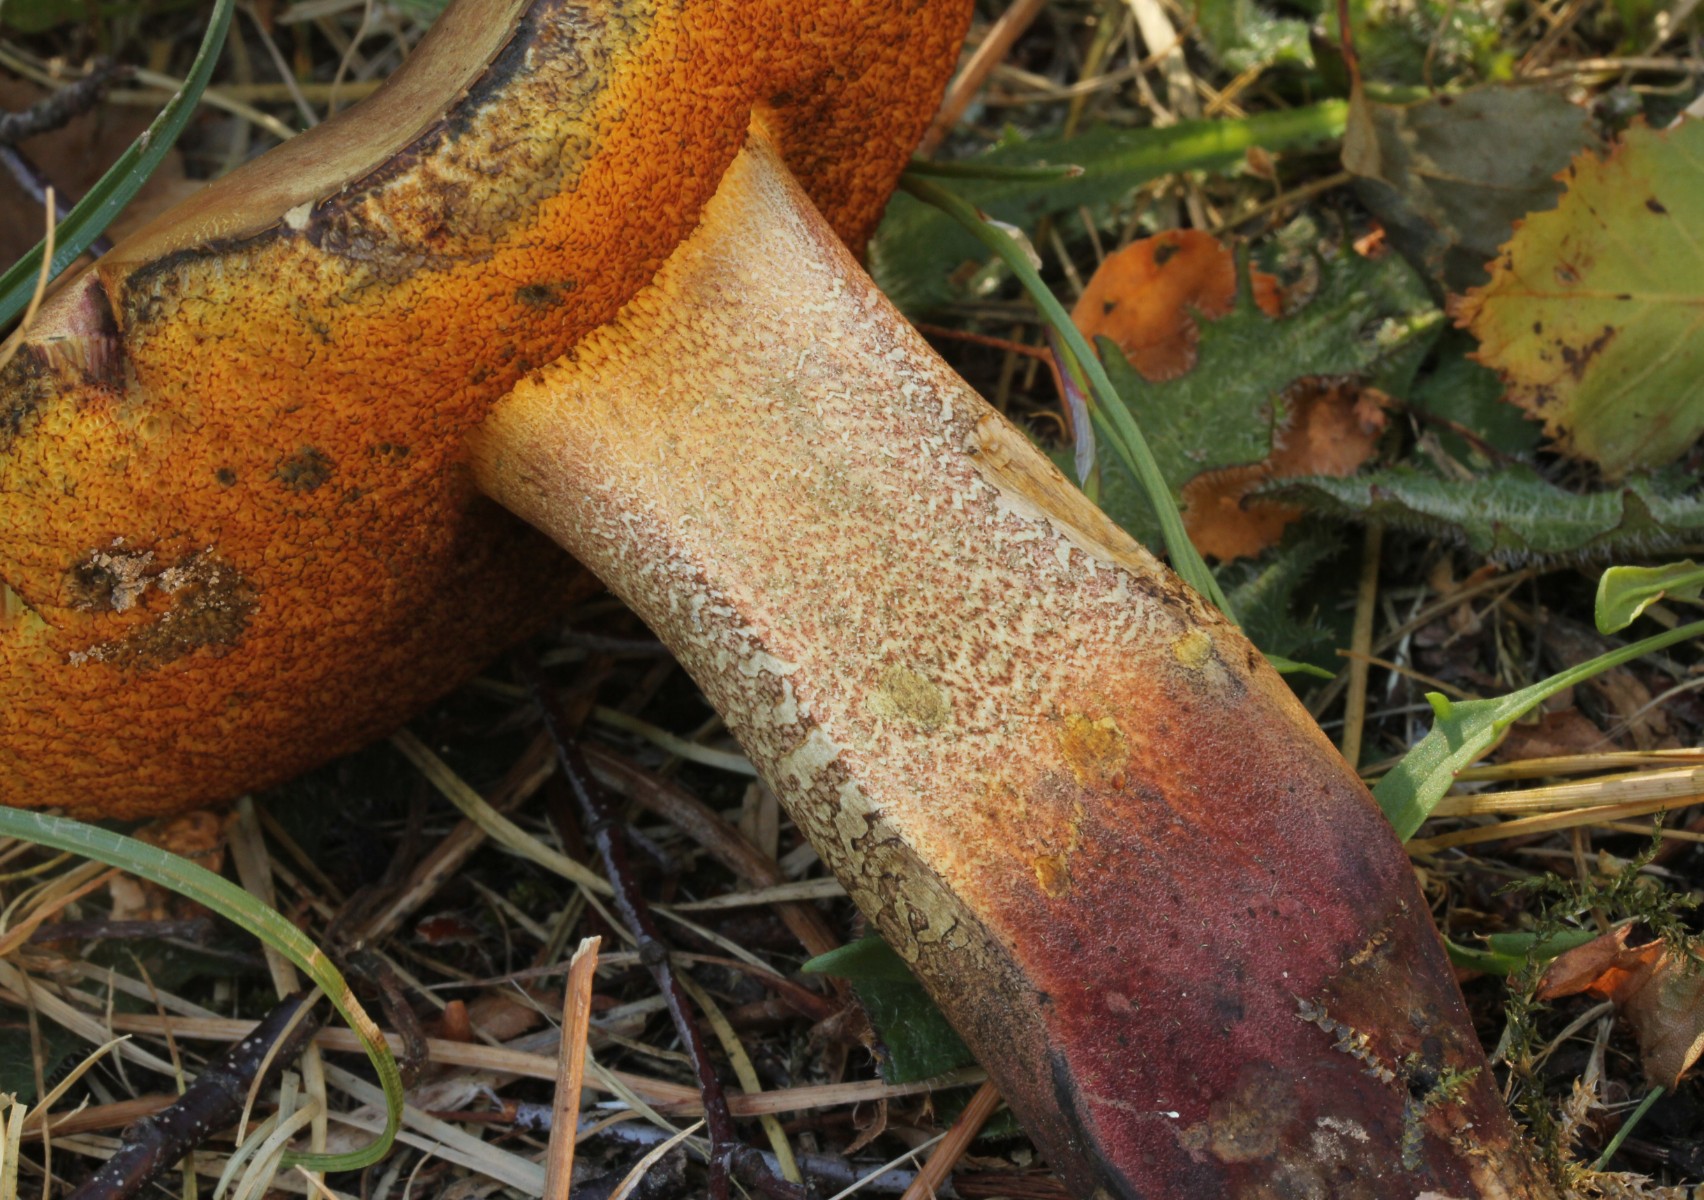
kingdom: Fungi
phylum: Basidiomycota
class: Agaricomycetes
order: Boletales
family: Boletaceae
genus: Suillellus
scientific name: Suillellus luridus
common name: netstokket indigorørhat
